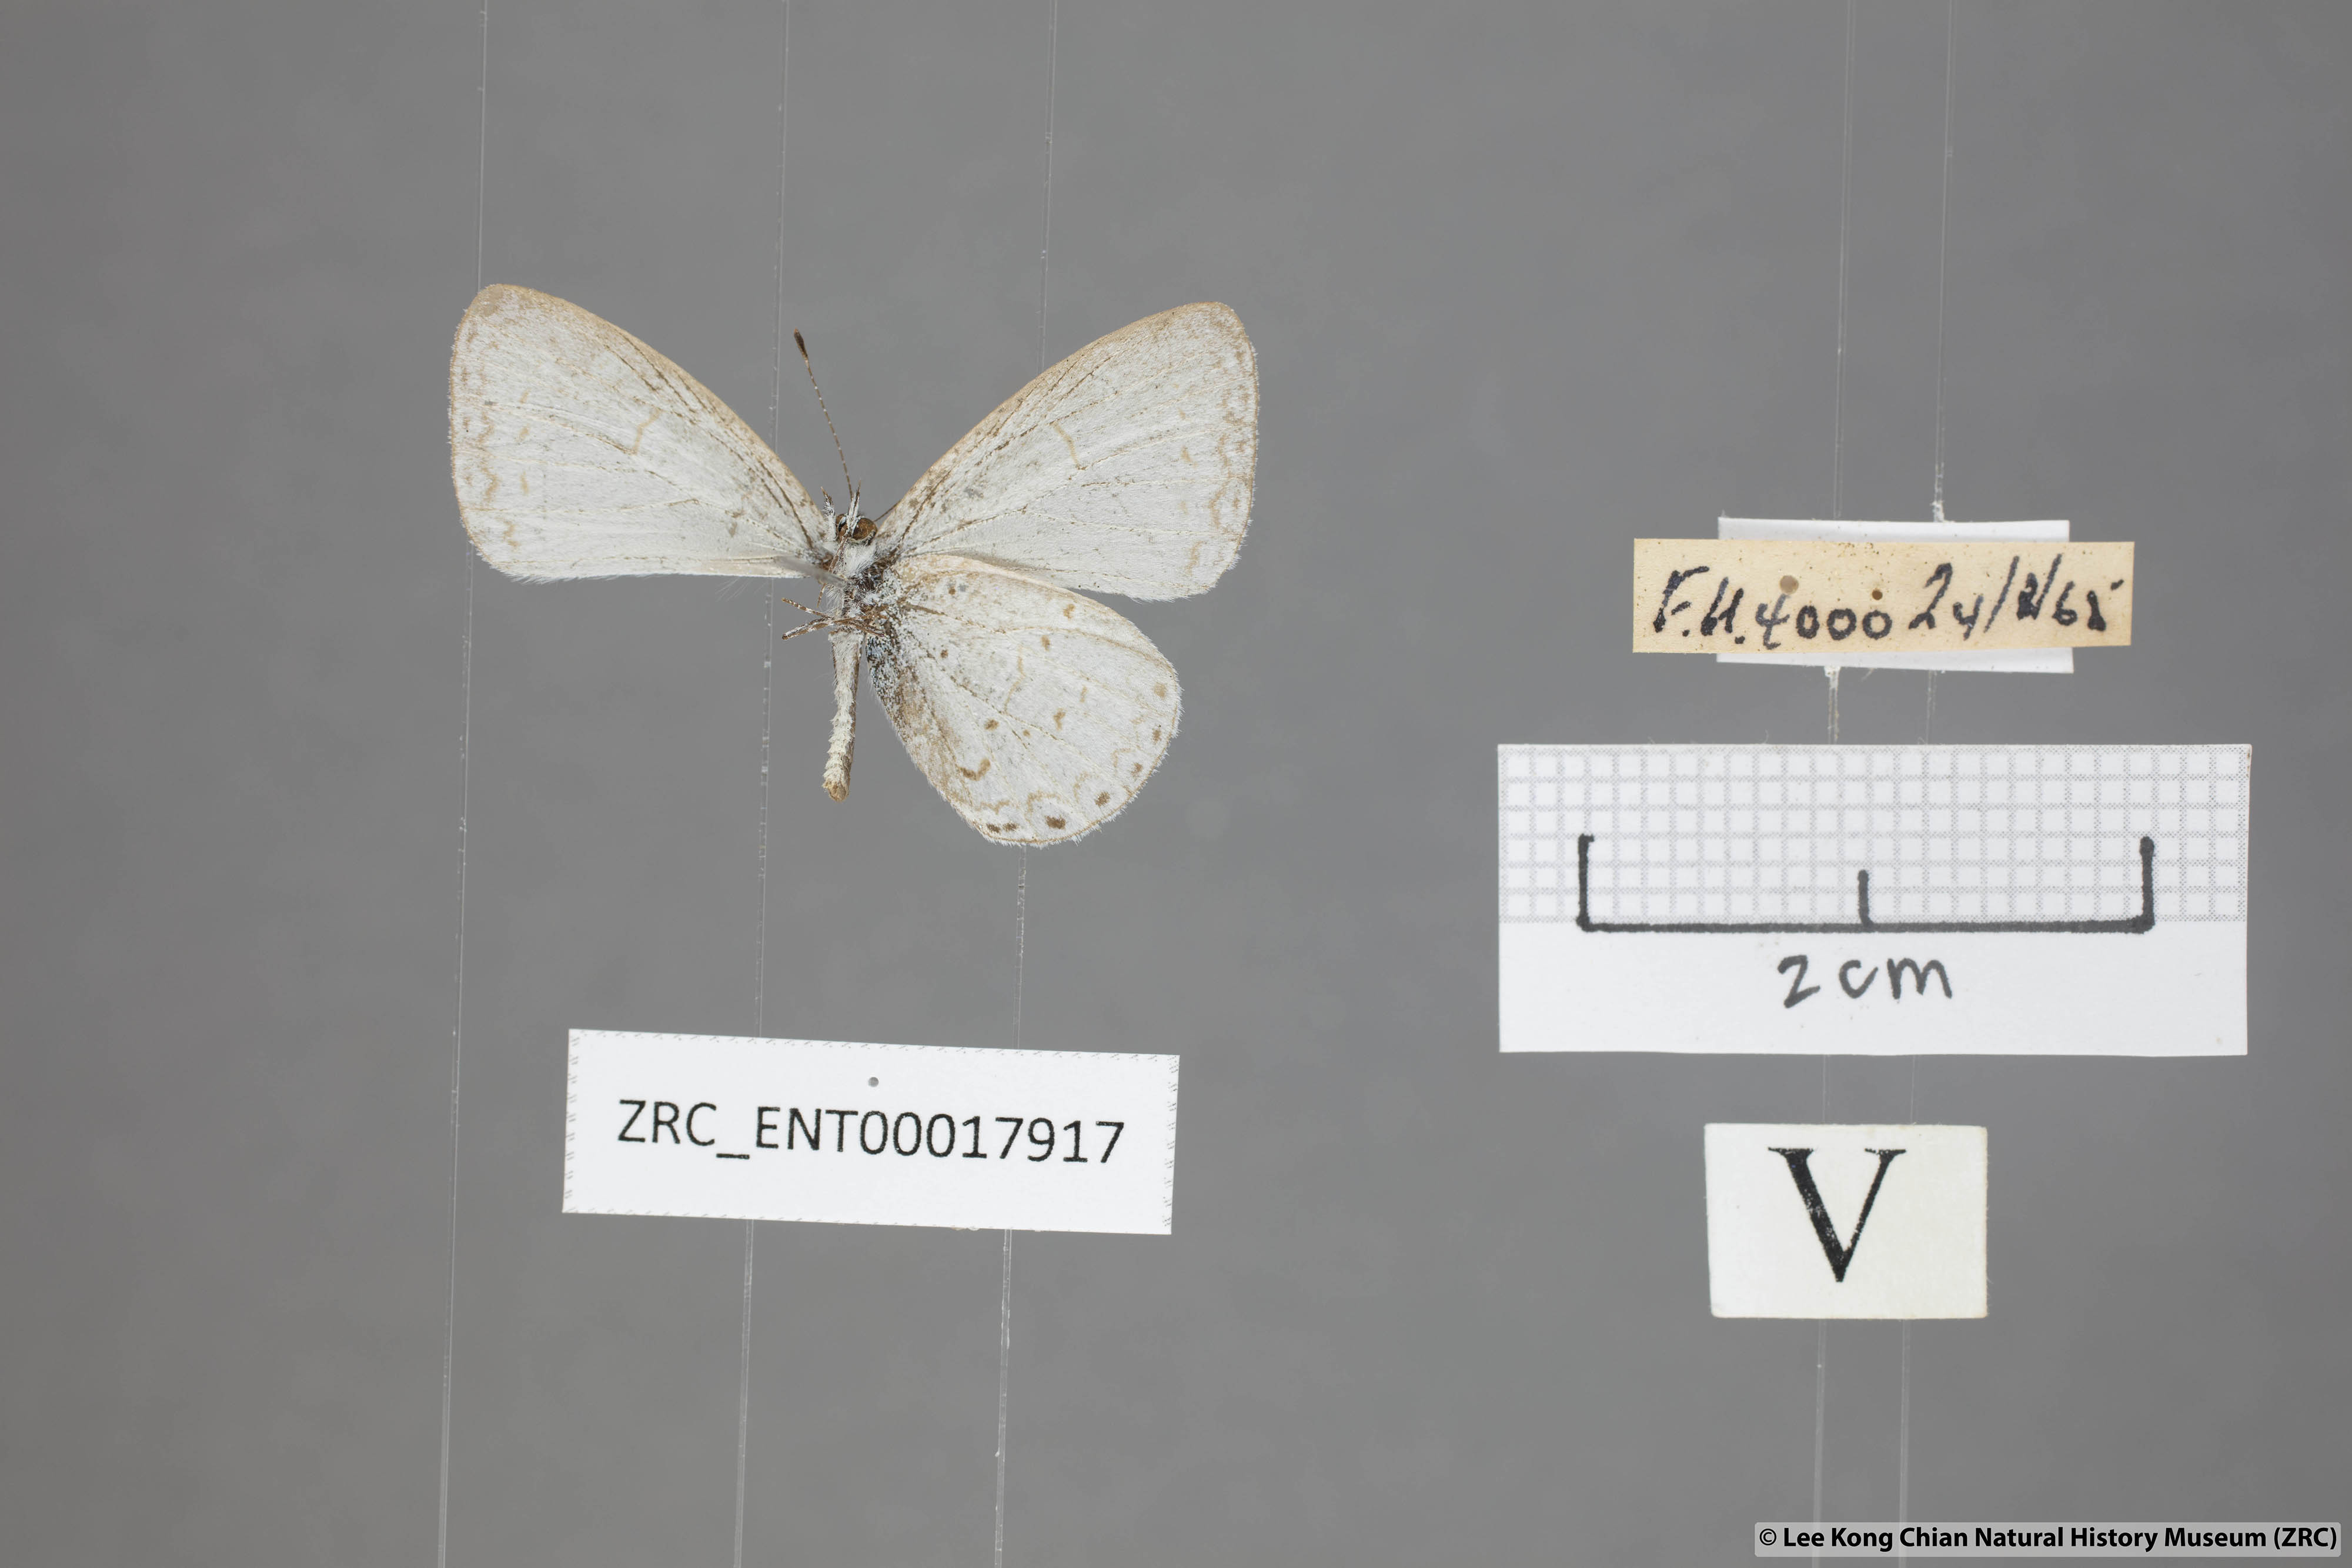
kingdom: Animalia
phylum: Arthropoda
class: Insecta
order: Lepidoptera
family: Lycaenidae
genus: Udara
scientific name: Udara
